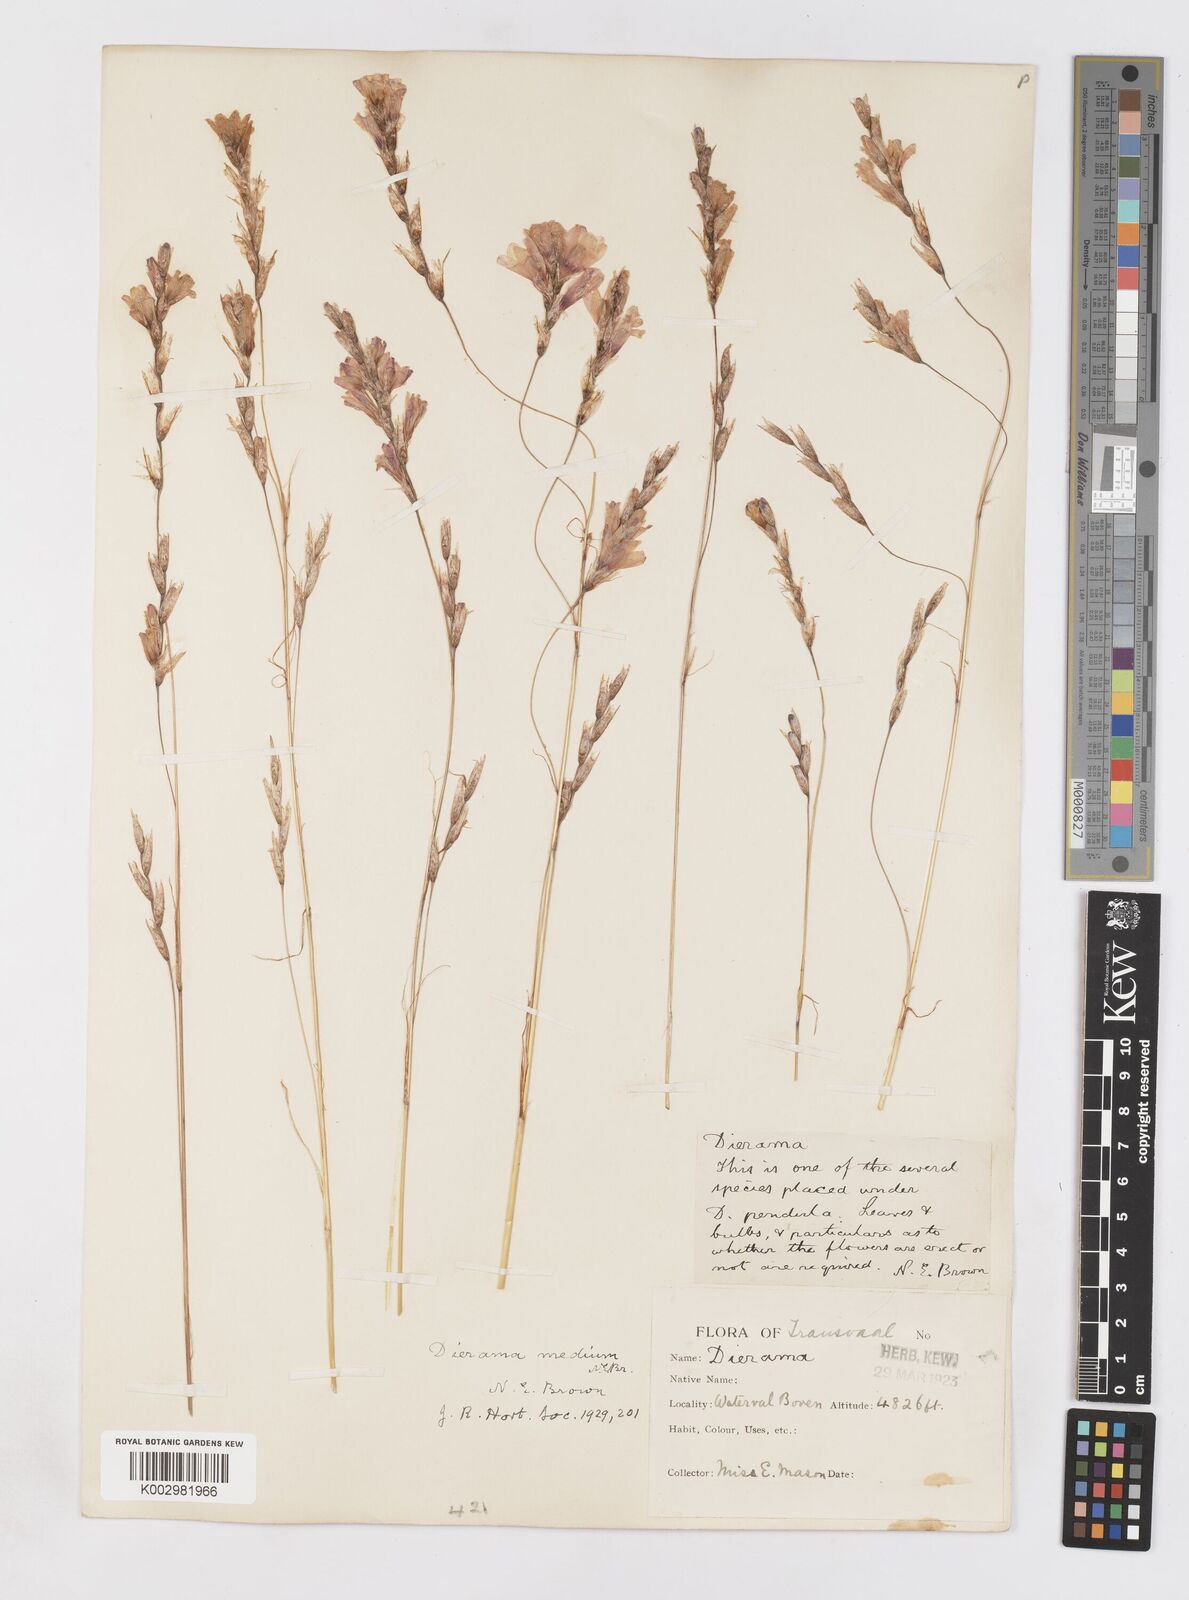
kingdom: Plantae
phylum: Tracheophyta
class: Liliopsida
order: Asparagales
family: Iridaceae
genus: Dierama
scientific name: Dierama medium
